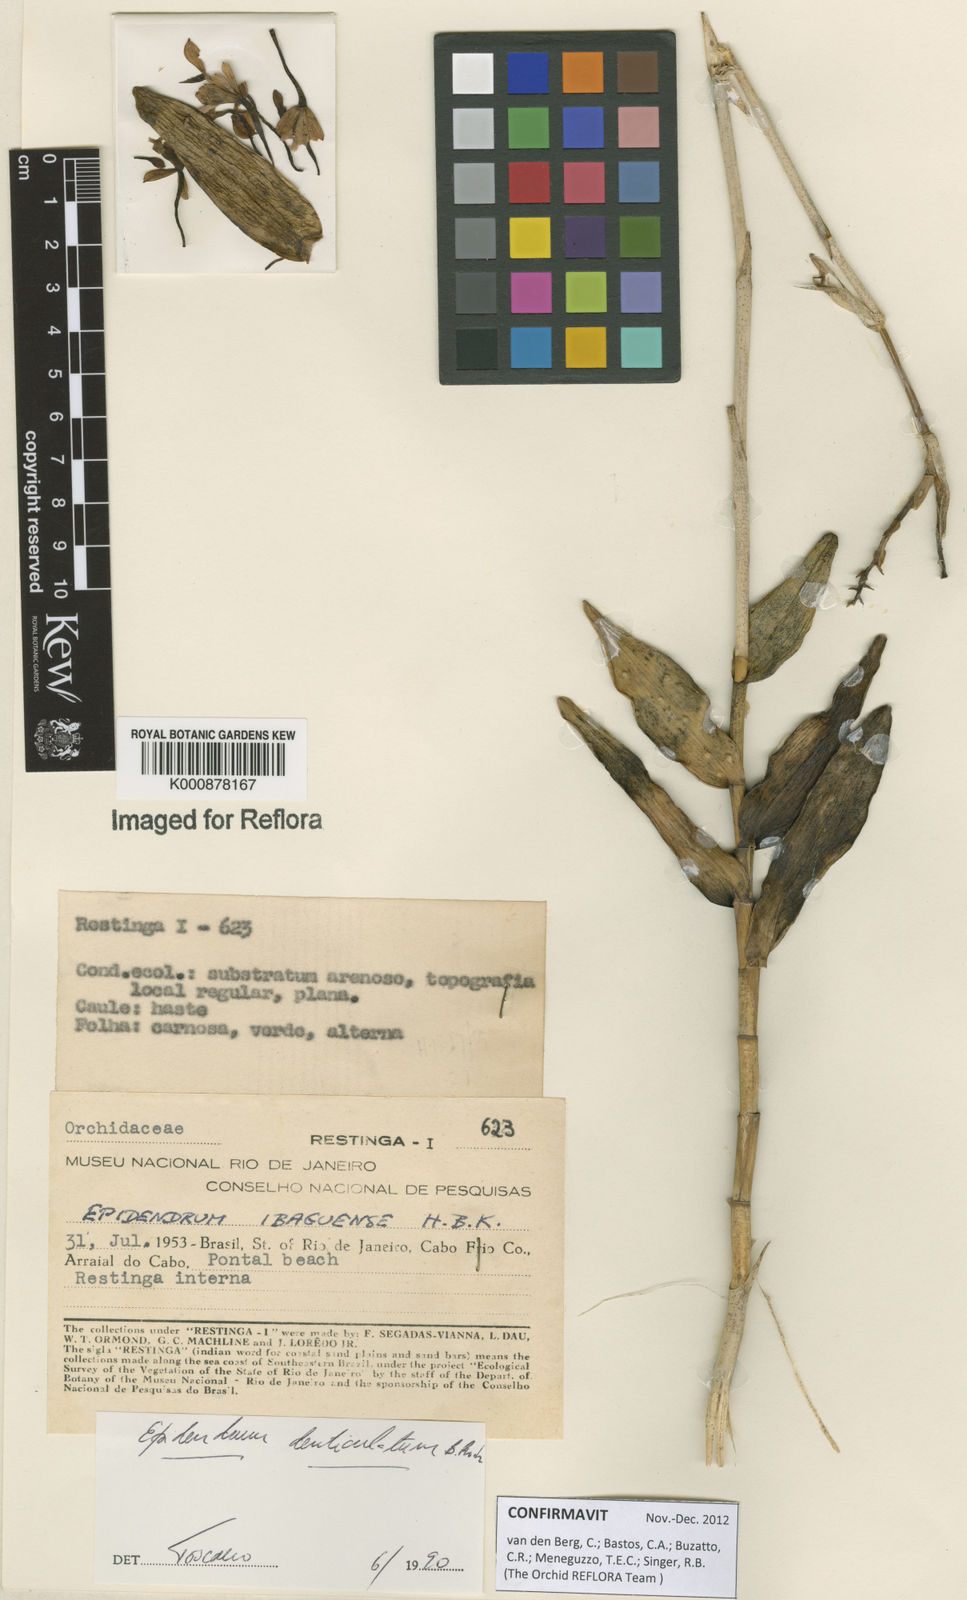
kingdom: Plantae
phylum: Tracheophyta
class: Liliopsida
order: Asparagales
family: Orchidaceae
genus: Epidendrum
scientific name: Epidendrum denticulatum
